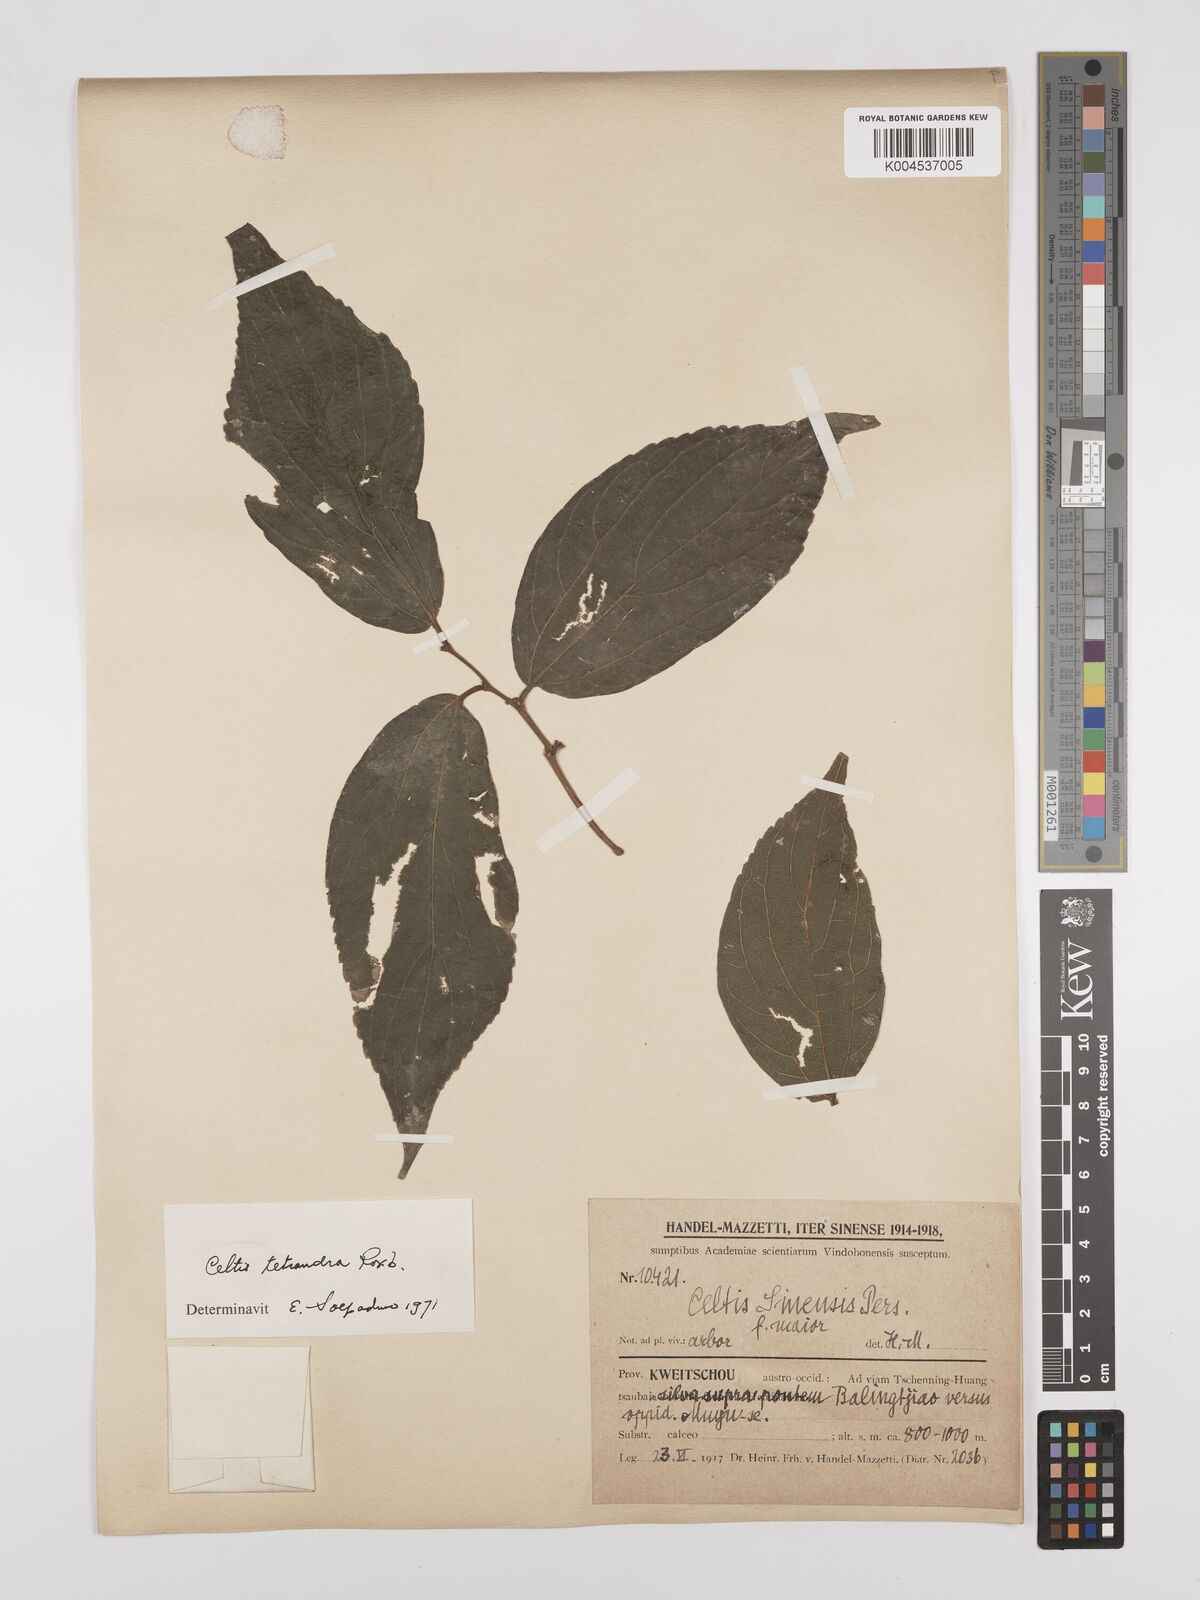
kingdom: Plantae
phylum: Tracheophyta
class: Magnoliopsida
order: Rosales
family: Cannabaceae
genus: Celtis
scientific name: Celtis tetrandra
